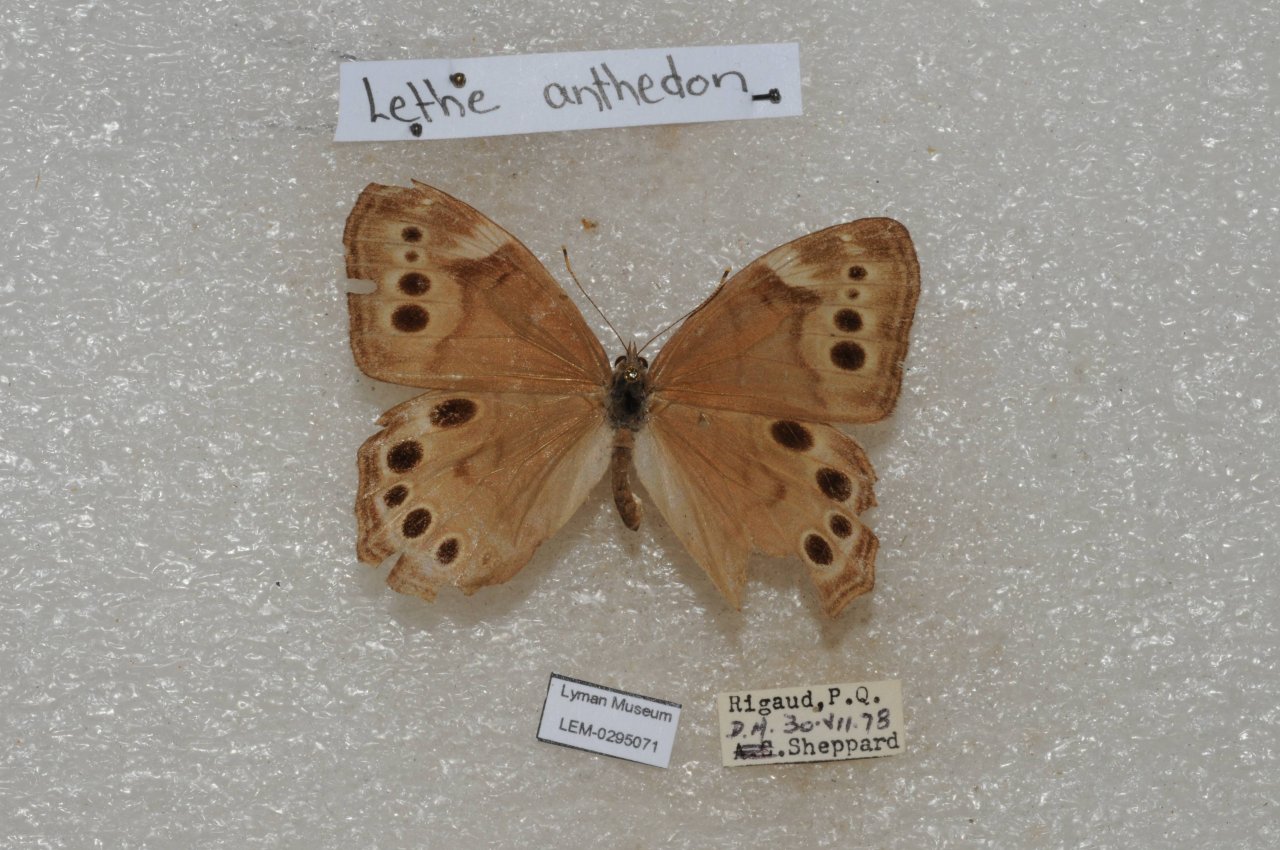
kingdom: Animalia
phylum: Arthropoda
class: Insecta
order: Lepidoptera
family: Nymphalidae
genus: Lethe
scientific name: Lethe anthedon
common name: Northern Pearly-Eye
